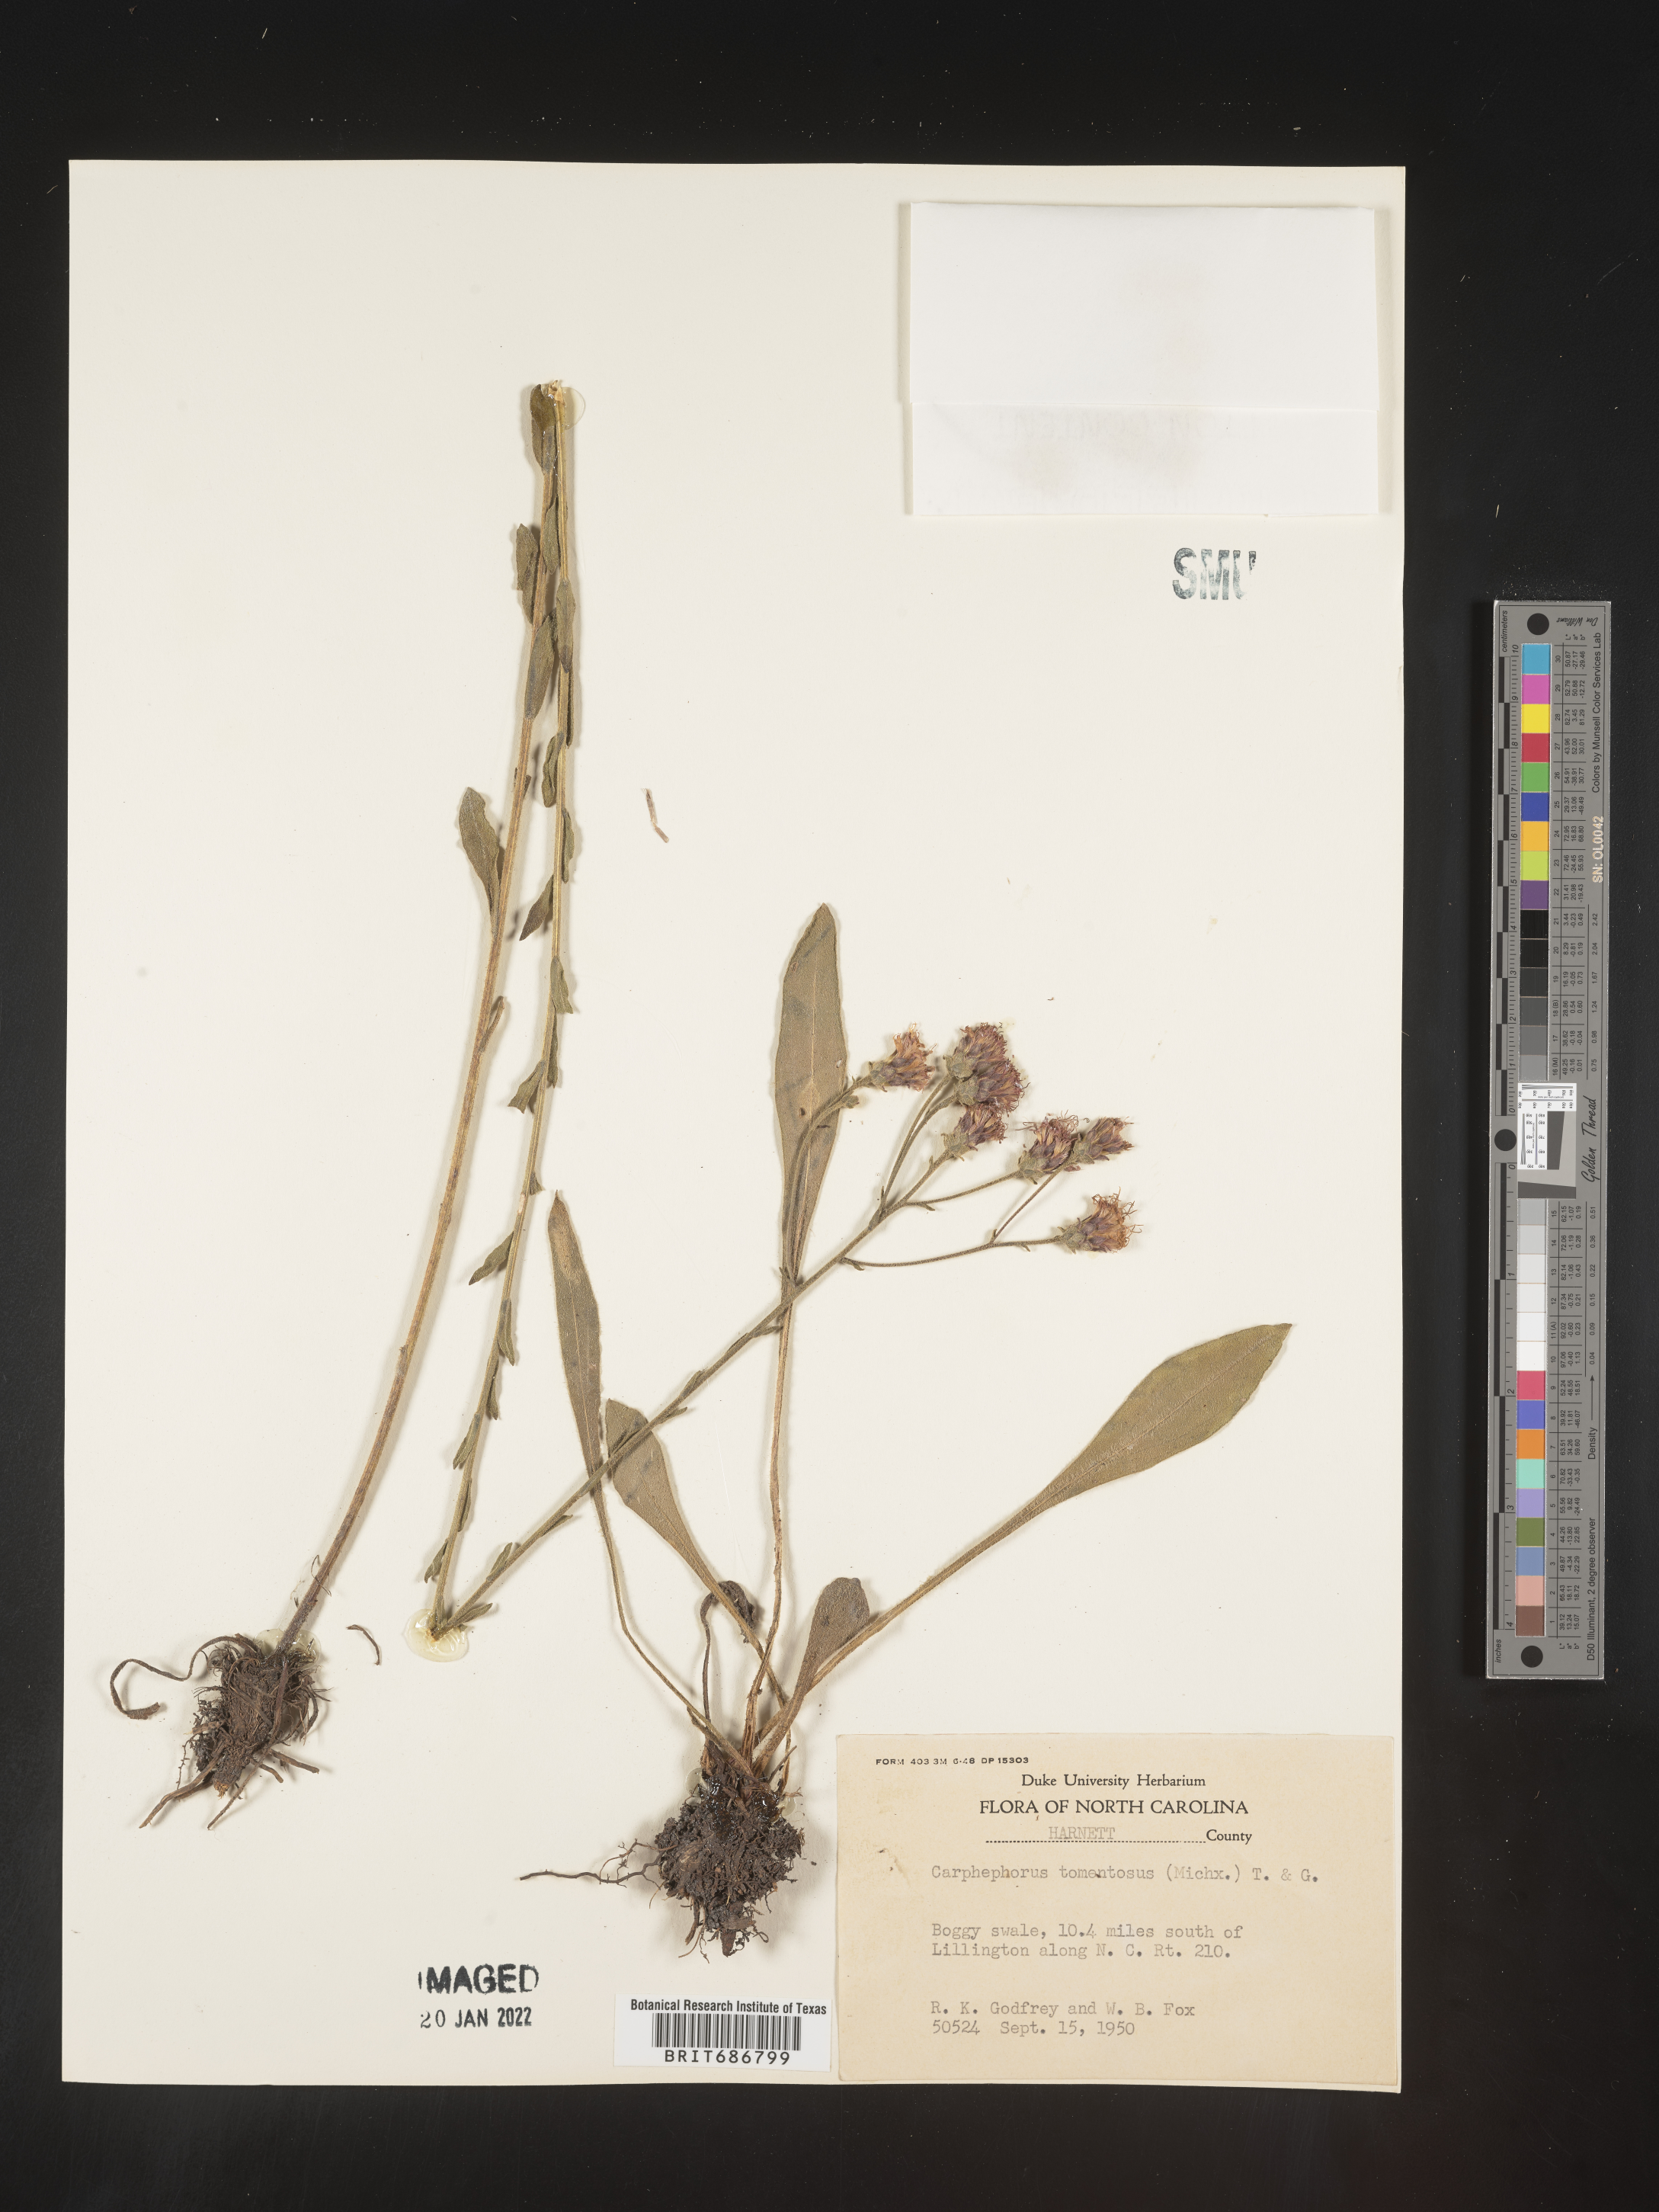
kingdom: Plantae
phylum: Tracheophyta
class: Magnoliopsida
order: Asterales
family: Asteraceae
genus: Carphephorus
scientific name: Carphephorus tomentosus
